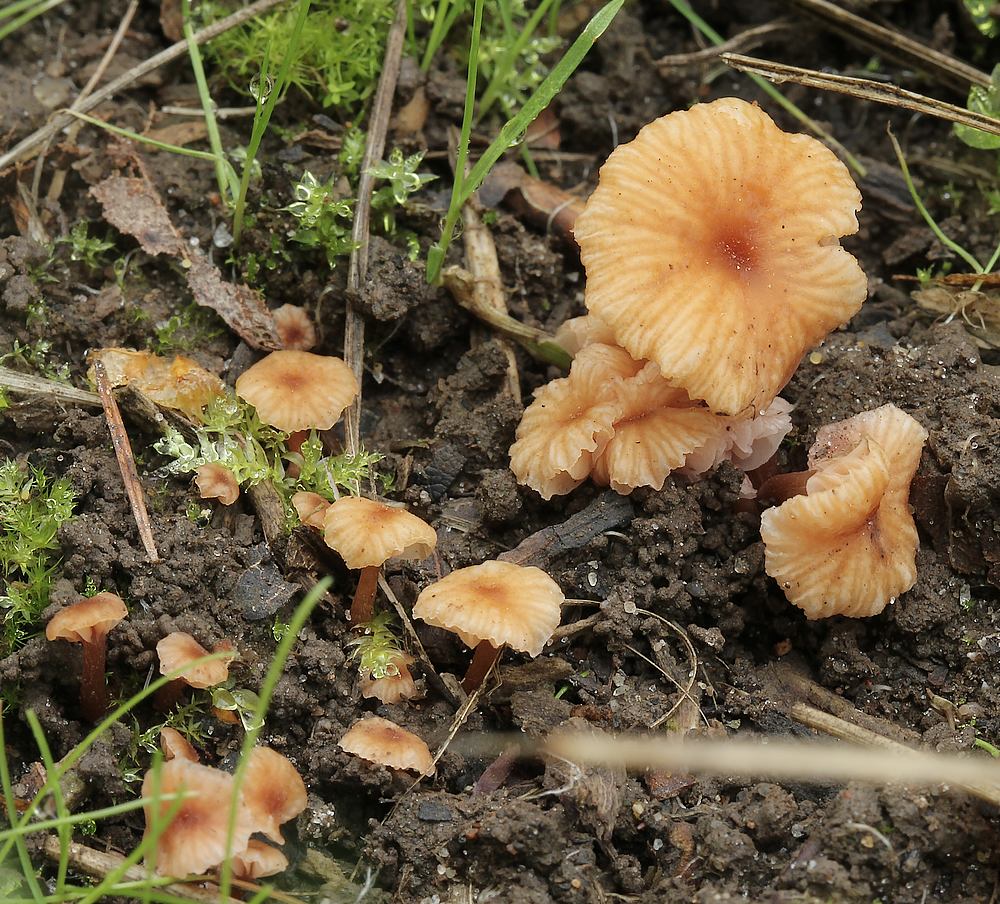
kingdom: Fungi
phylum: Basidiomycota
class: Agaricomycetes
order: Agaricales
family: Hydnangiaceae
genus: Laccaria
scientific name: Laccaria tortilis
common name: krybende ametysthat
